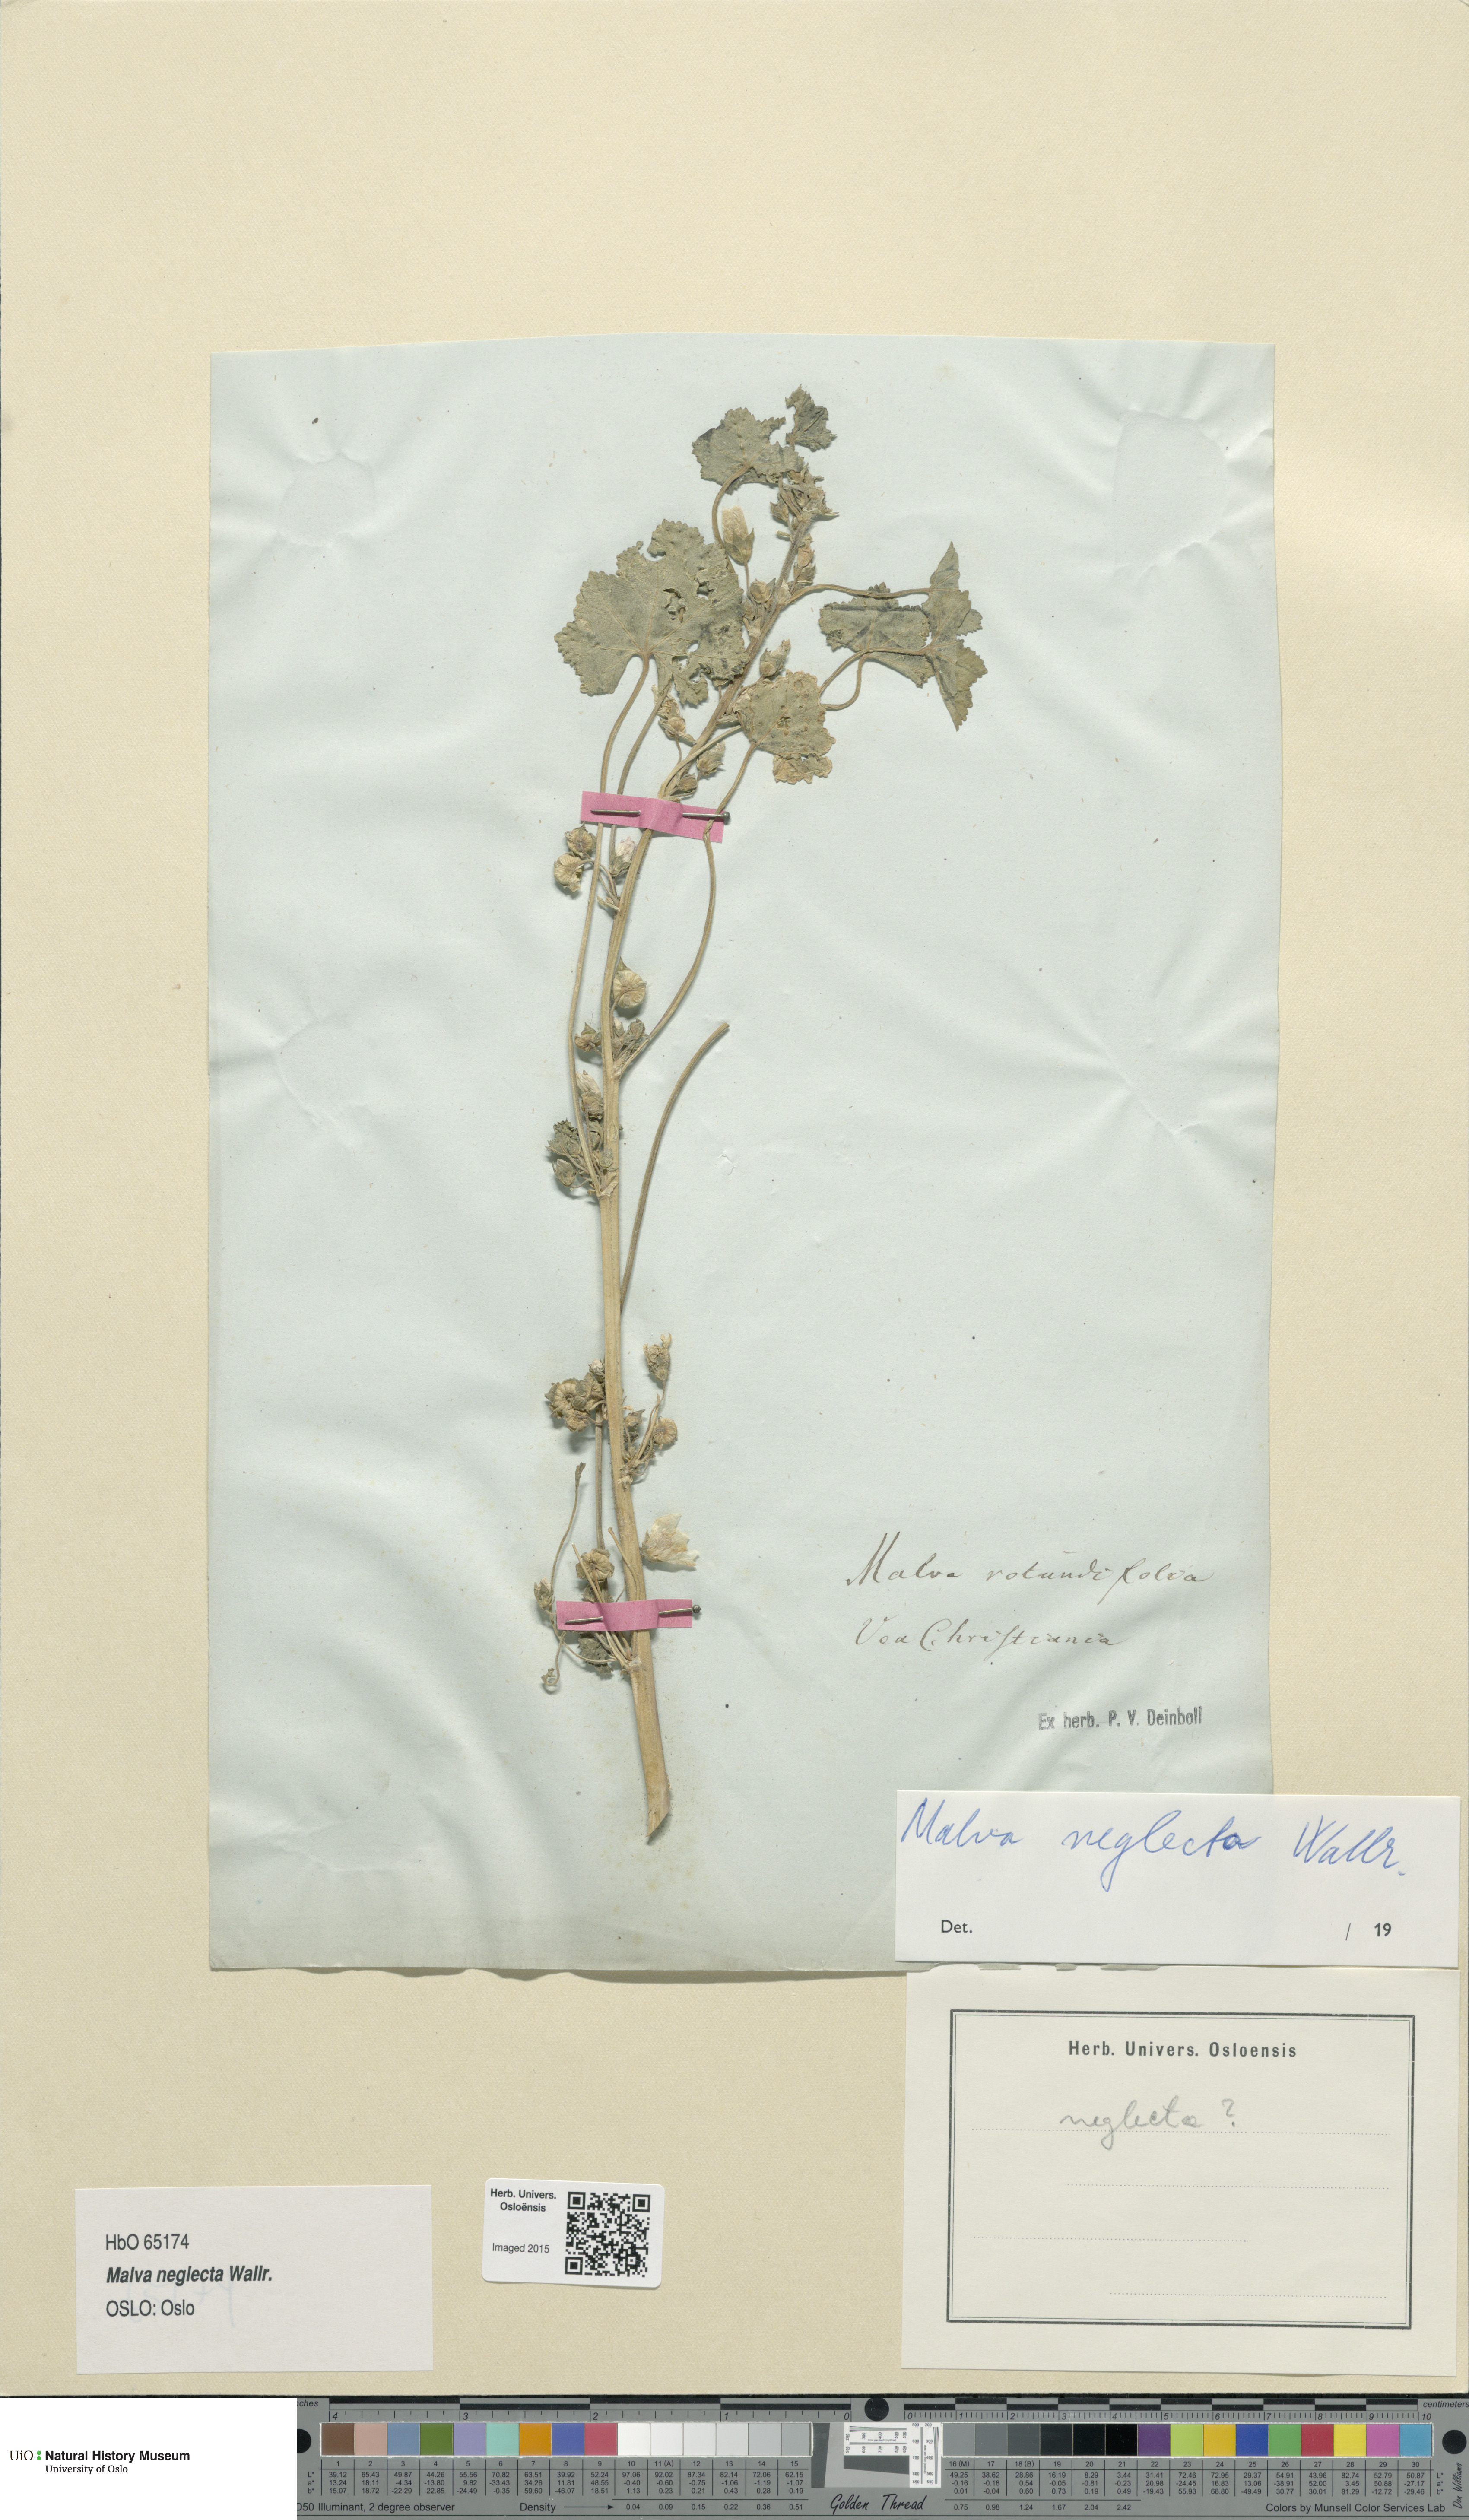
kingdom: Plantae
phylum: Tracheophyta
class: Magnoliopsida
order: Malvales
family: Malvaceae
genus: Malva
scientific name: Malva neglecta
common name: Common mallow
